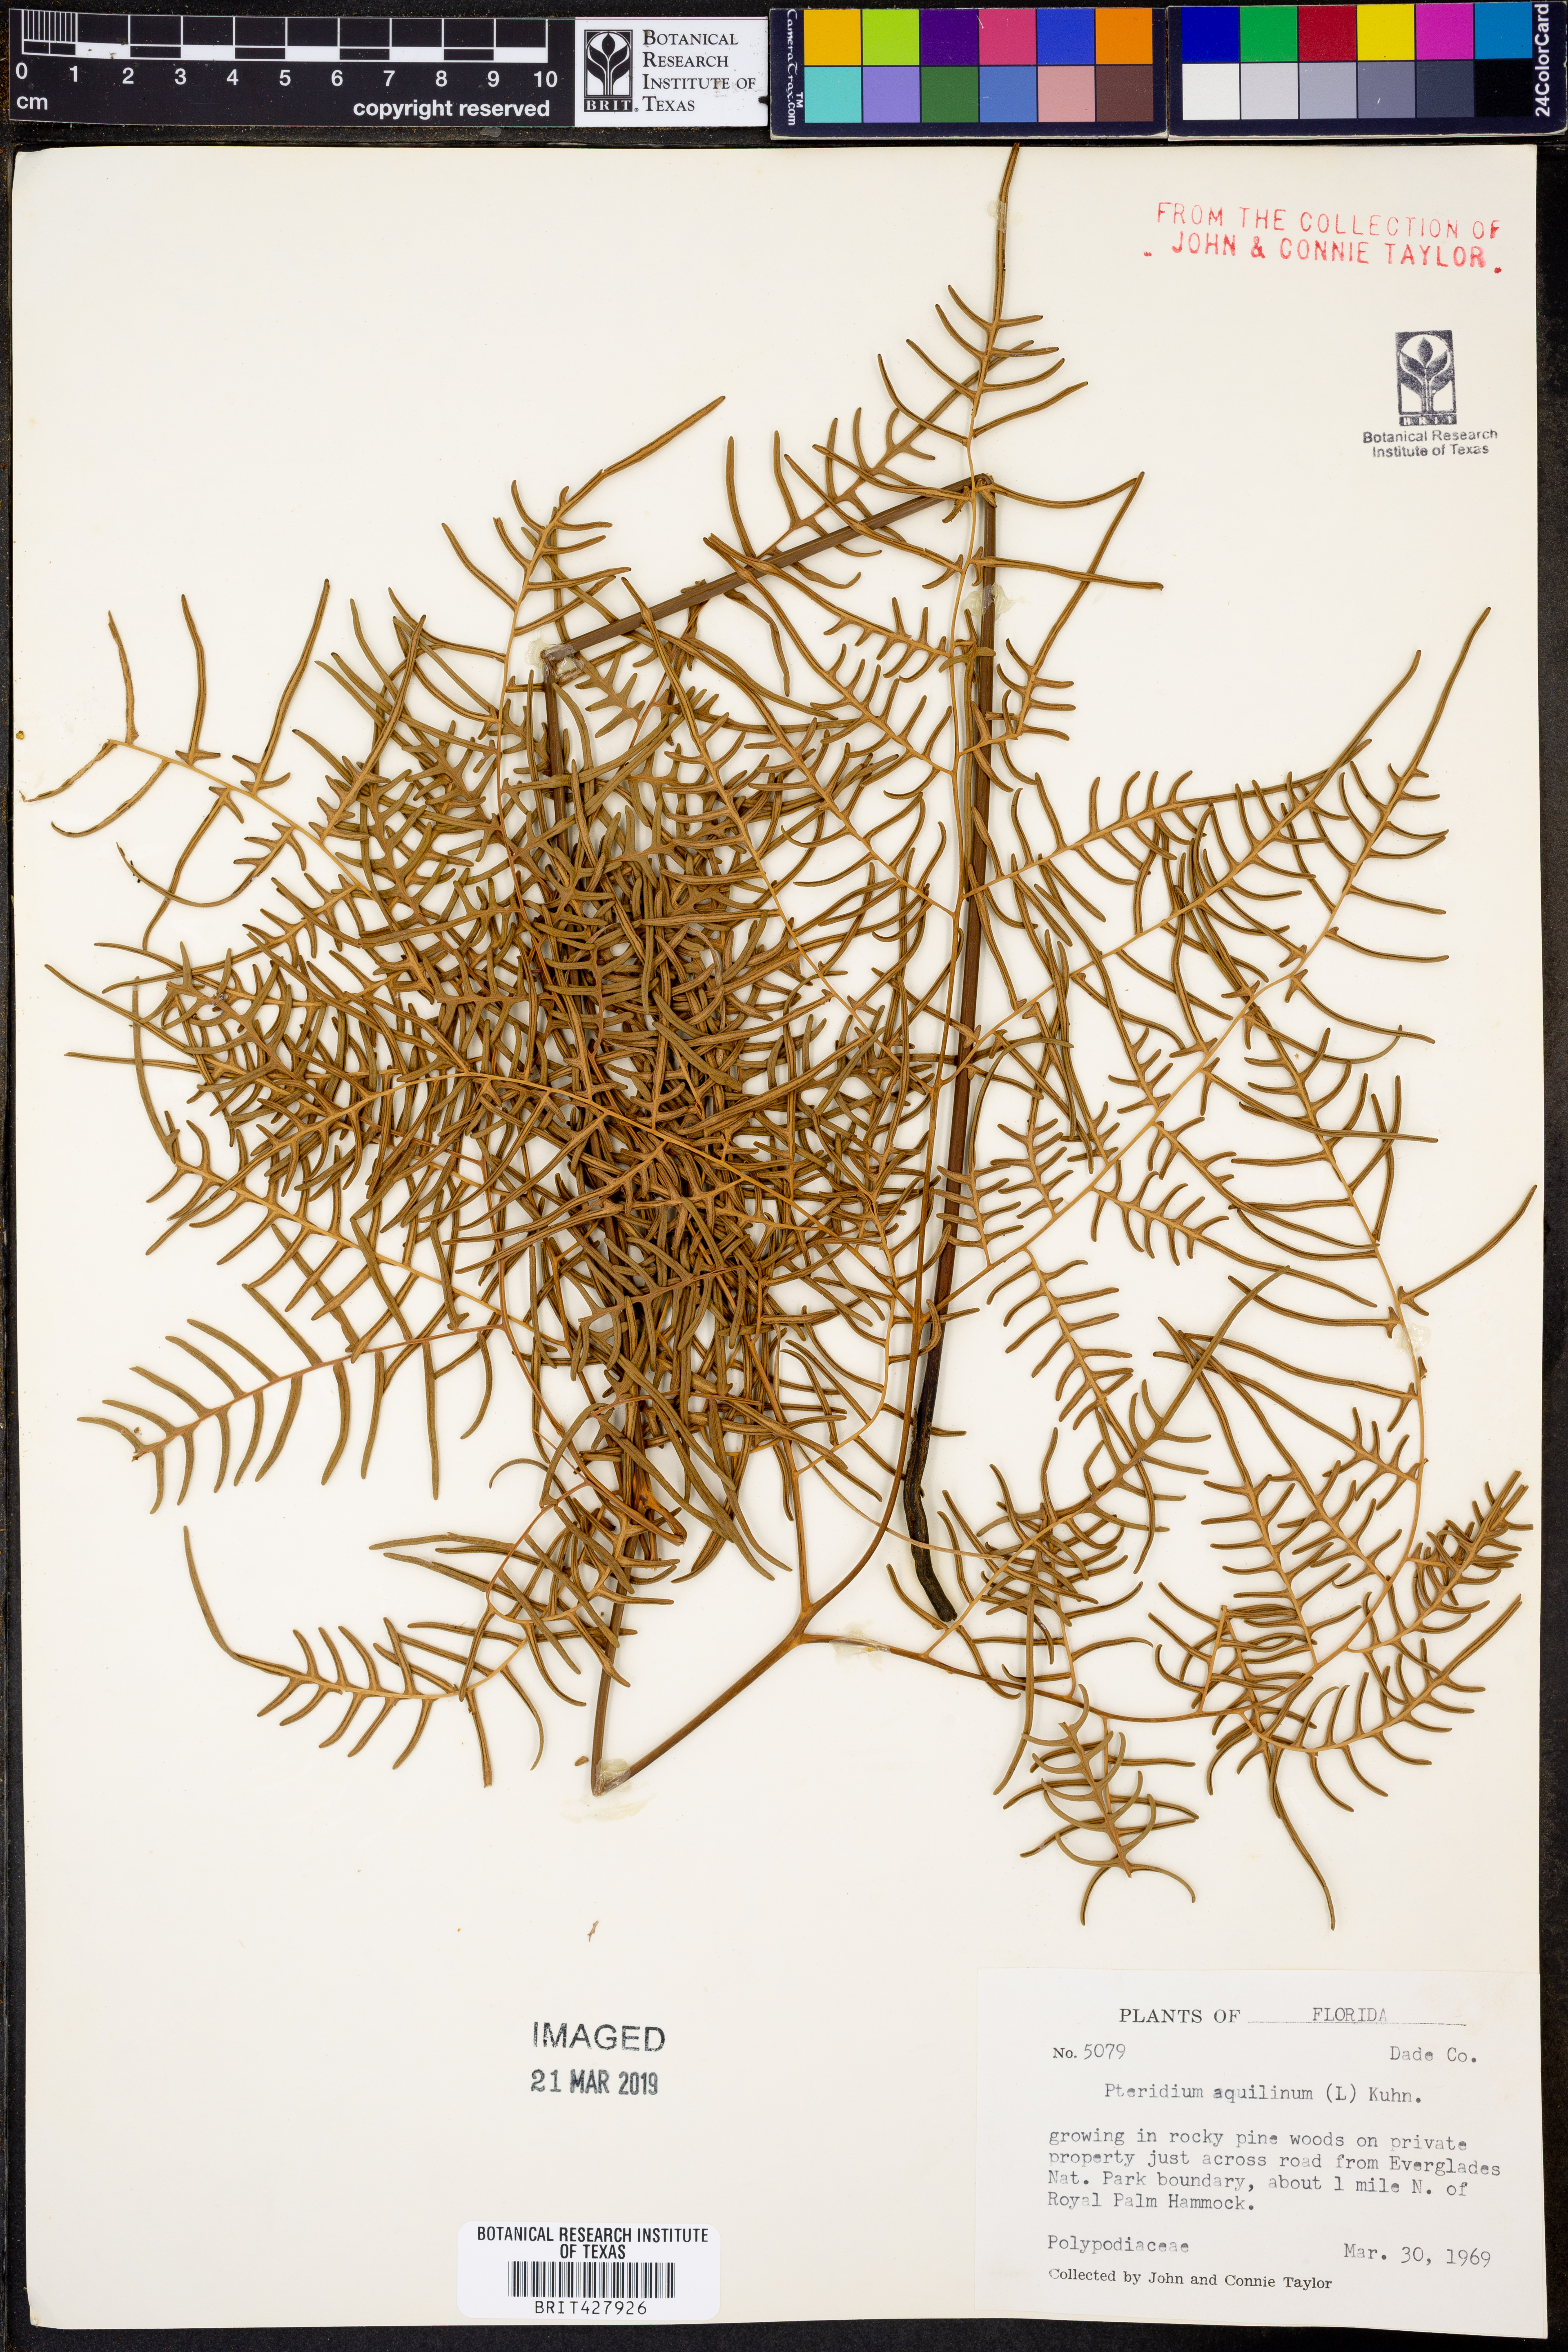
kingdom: Plantae
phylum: Tracheophyta
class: Polypodiopsida
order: Polypodiales
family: Dennstaedtiaceae
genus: Pteridium
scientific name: Pteridium aquilinum
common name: Bracken
